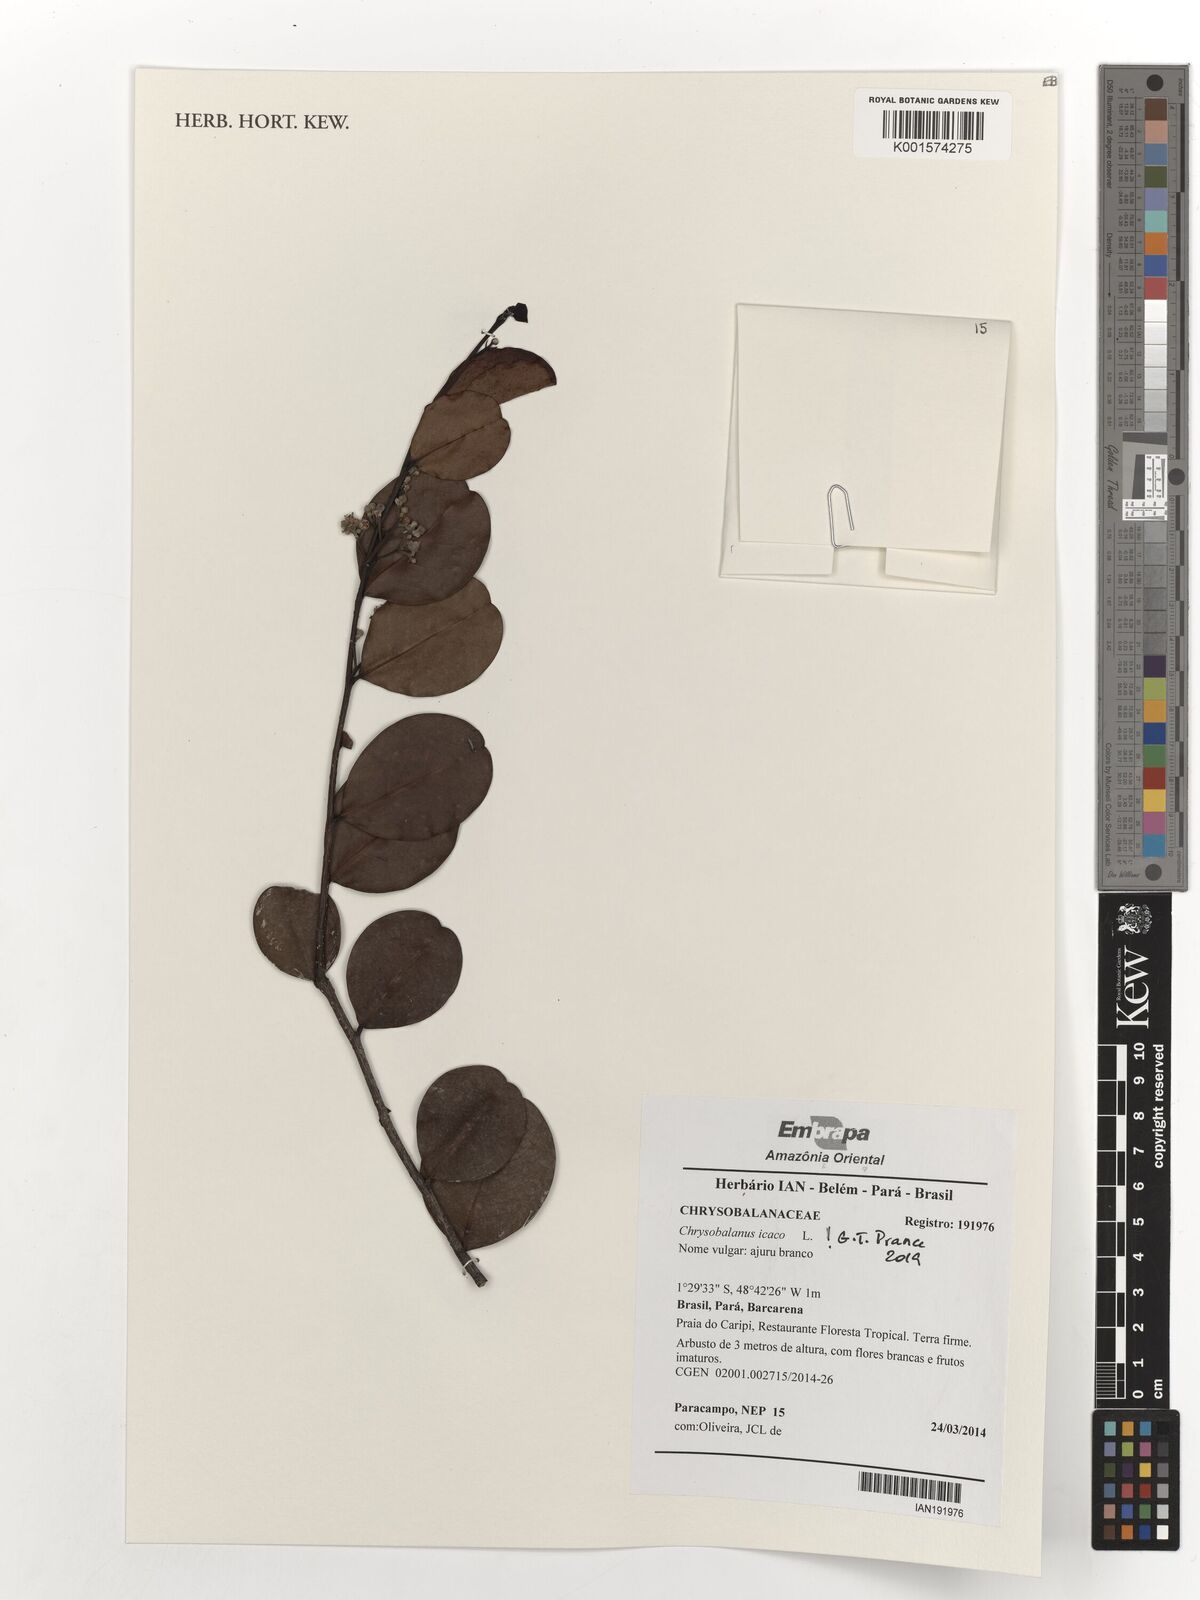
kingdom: Plantae
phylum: Tracheophyta
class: Magnoliopsida
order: Malpighiales
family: Chrysobalanaceae
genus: Chrysobalanus
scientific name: Chrysobalanus icaco
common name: Coco plum
